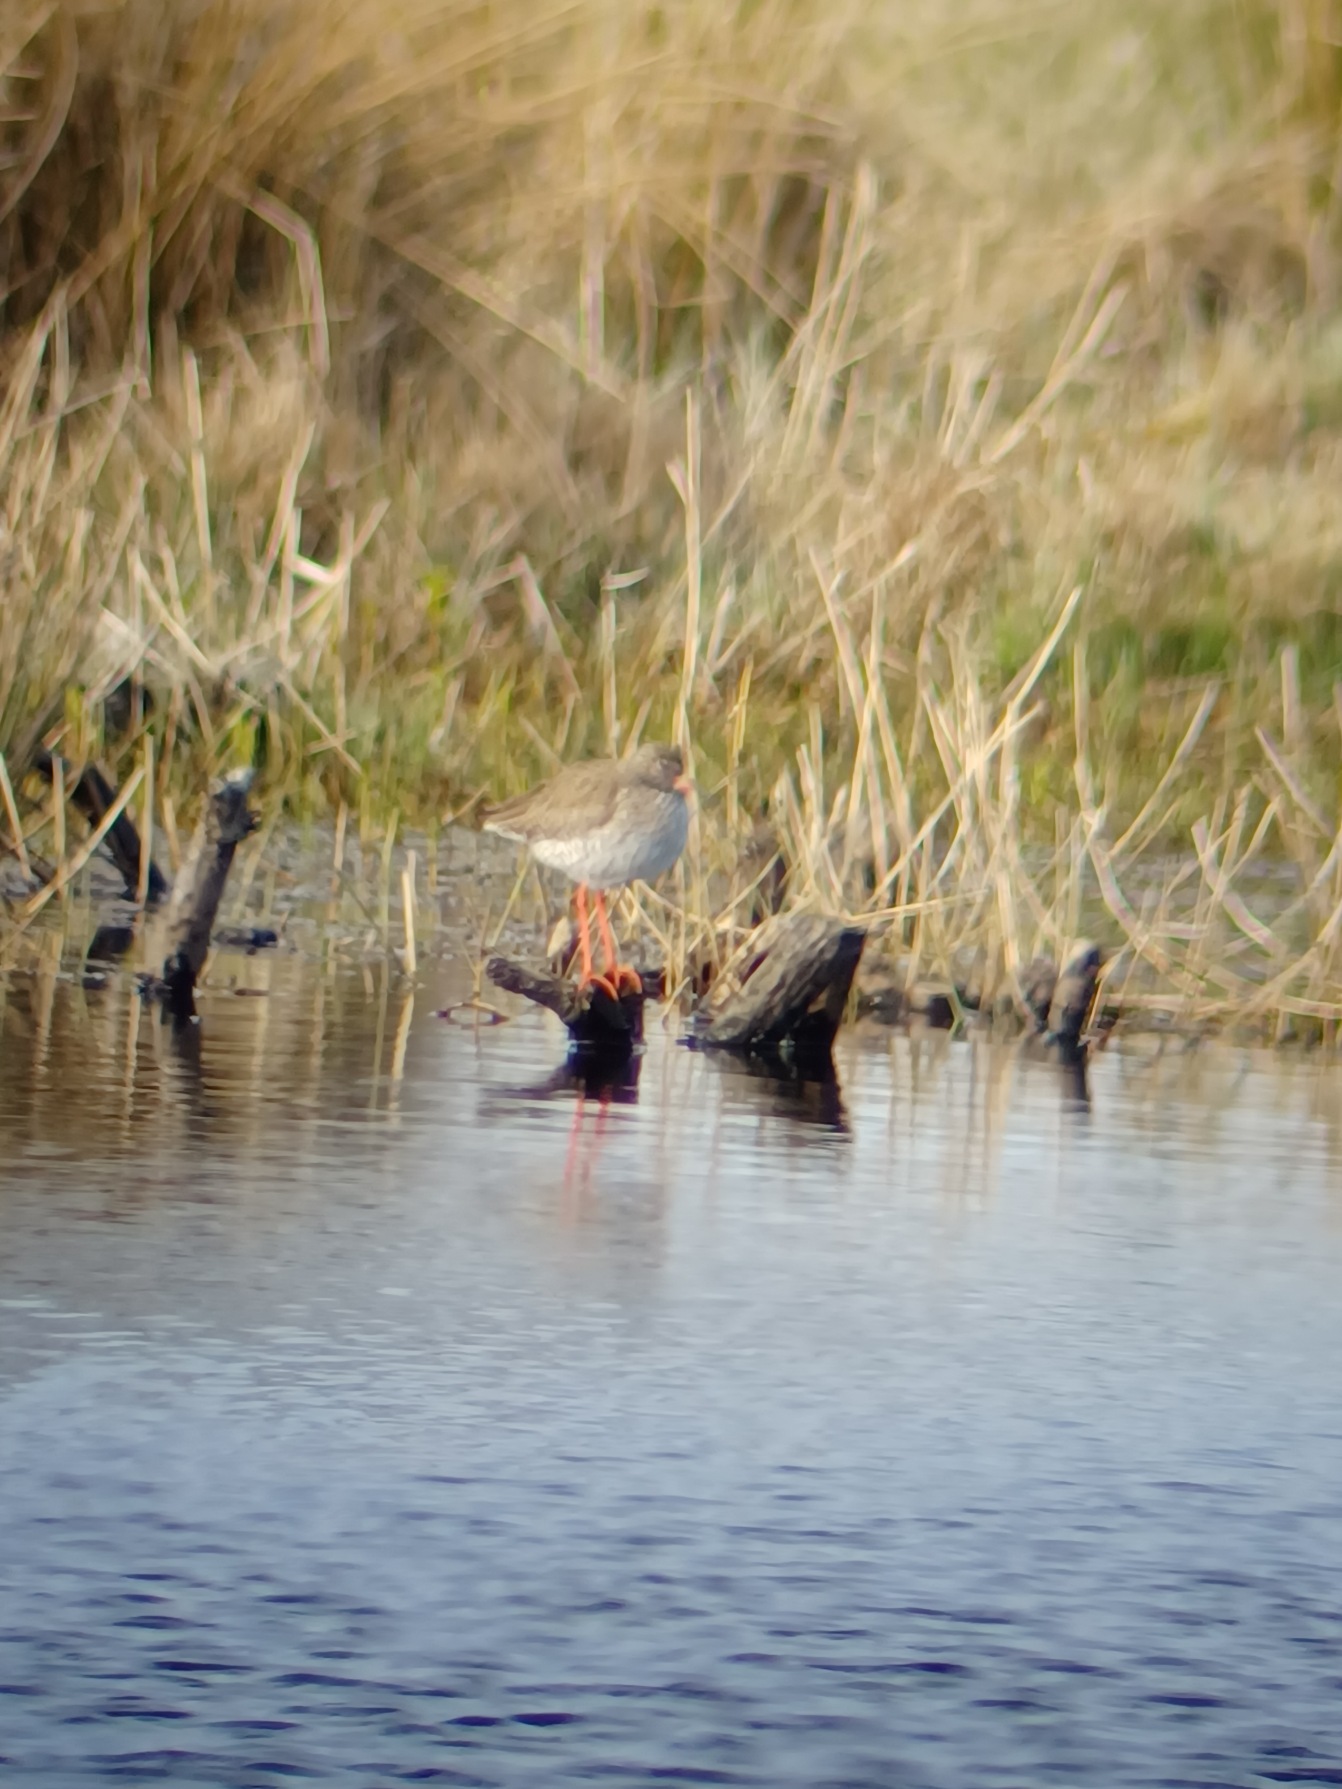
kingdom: Animalia
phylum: Chordata
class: Aves
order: Charadriiformes
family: Scolopacidae
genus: Tringa
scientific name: Tringa totanus
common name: Rødben
